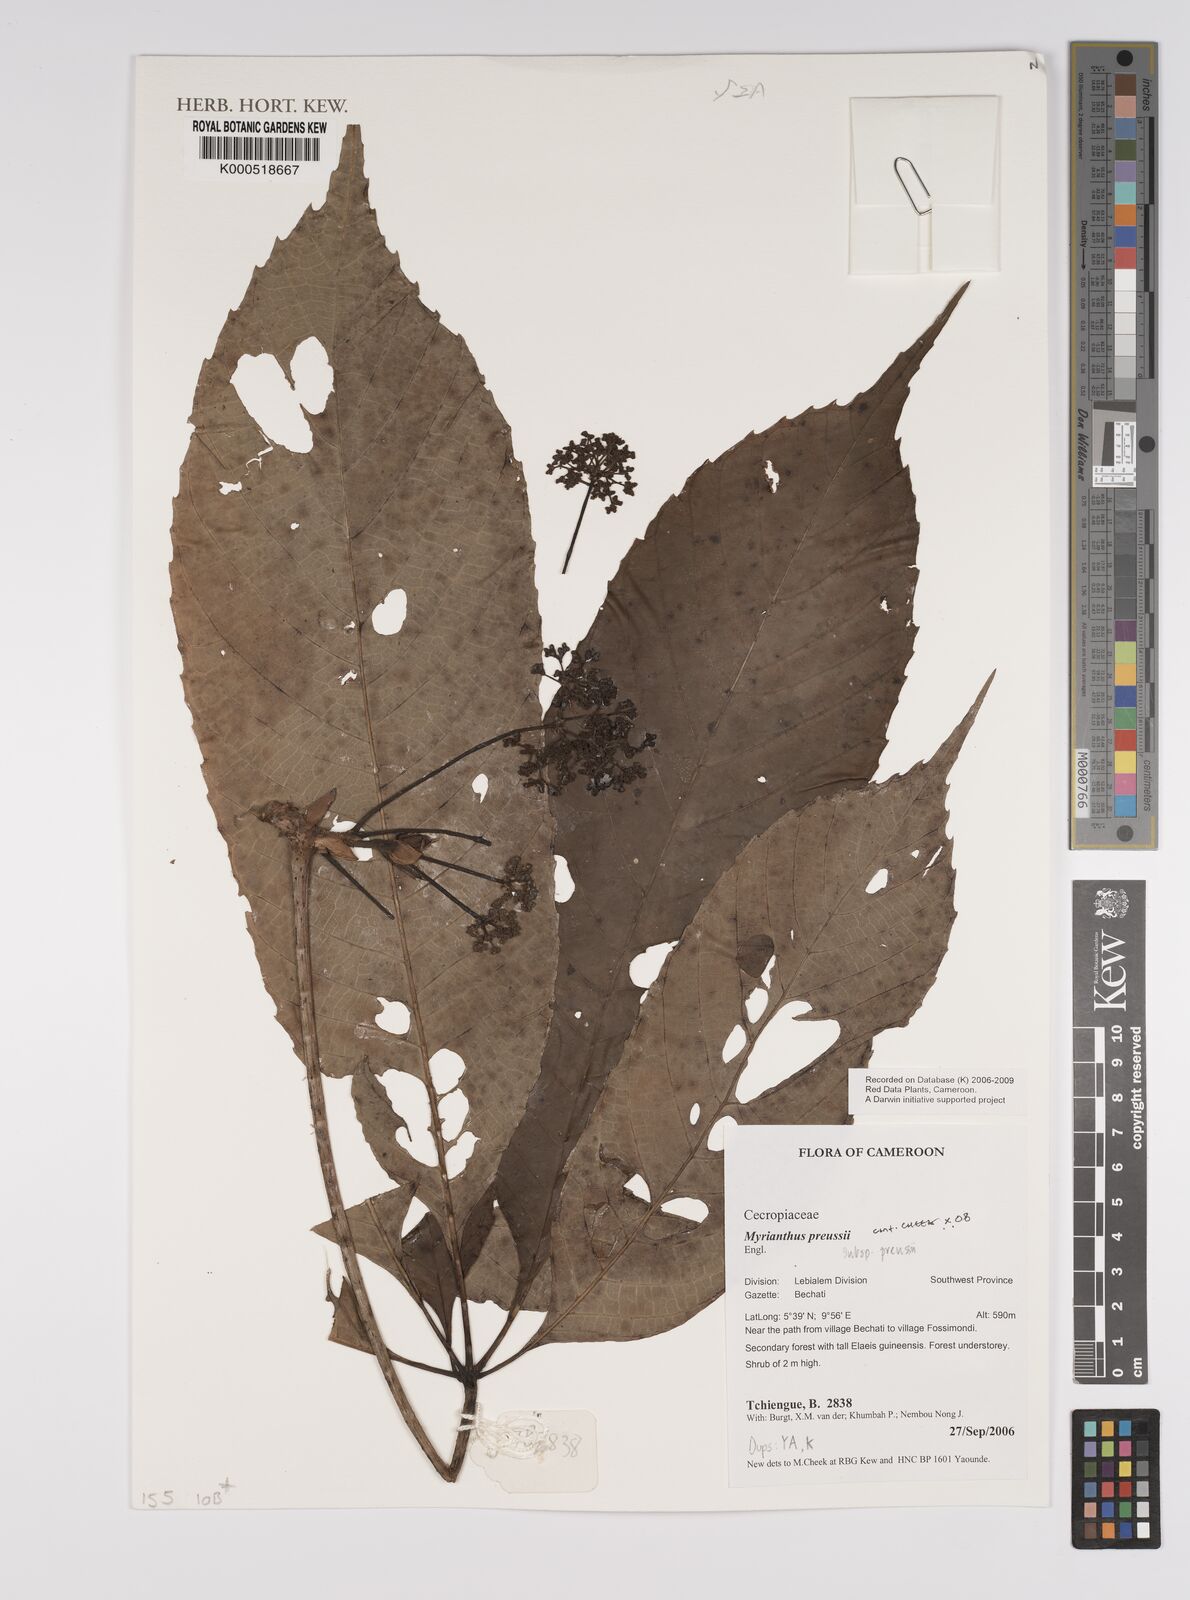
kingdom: Plantae
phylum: Tracheophyta
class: Magnoliopsida
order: Rosales
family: Urticaceae
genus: Myrianthus
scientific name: Myrianthus preussii
